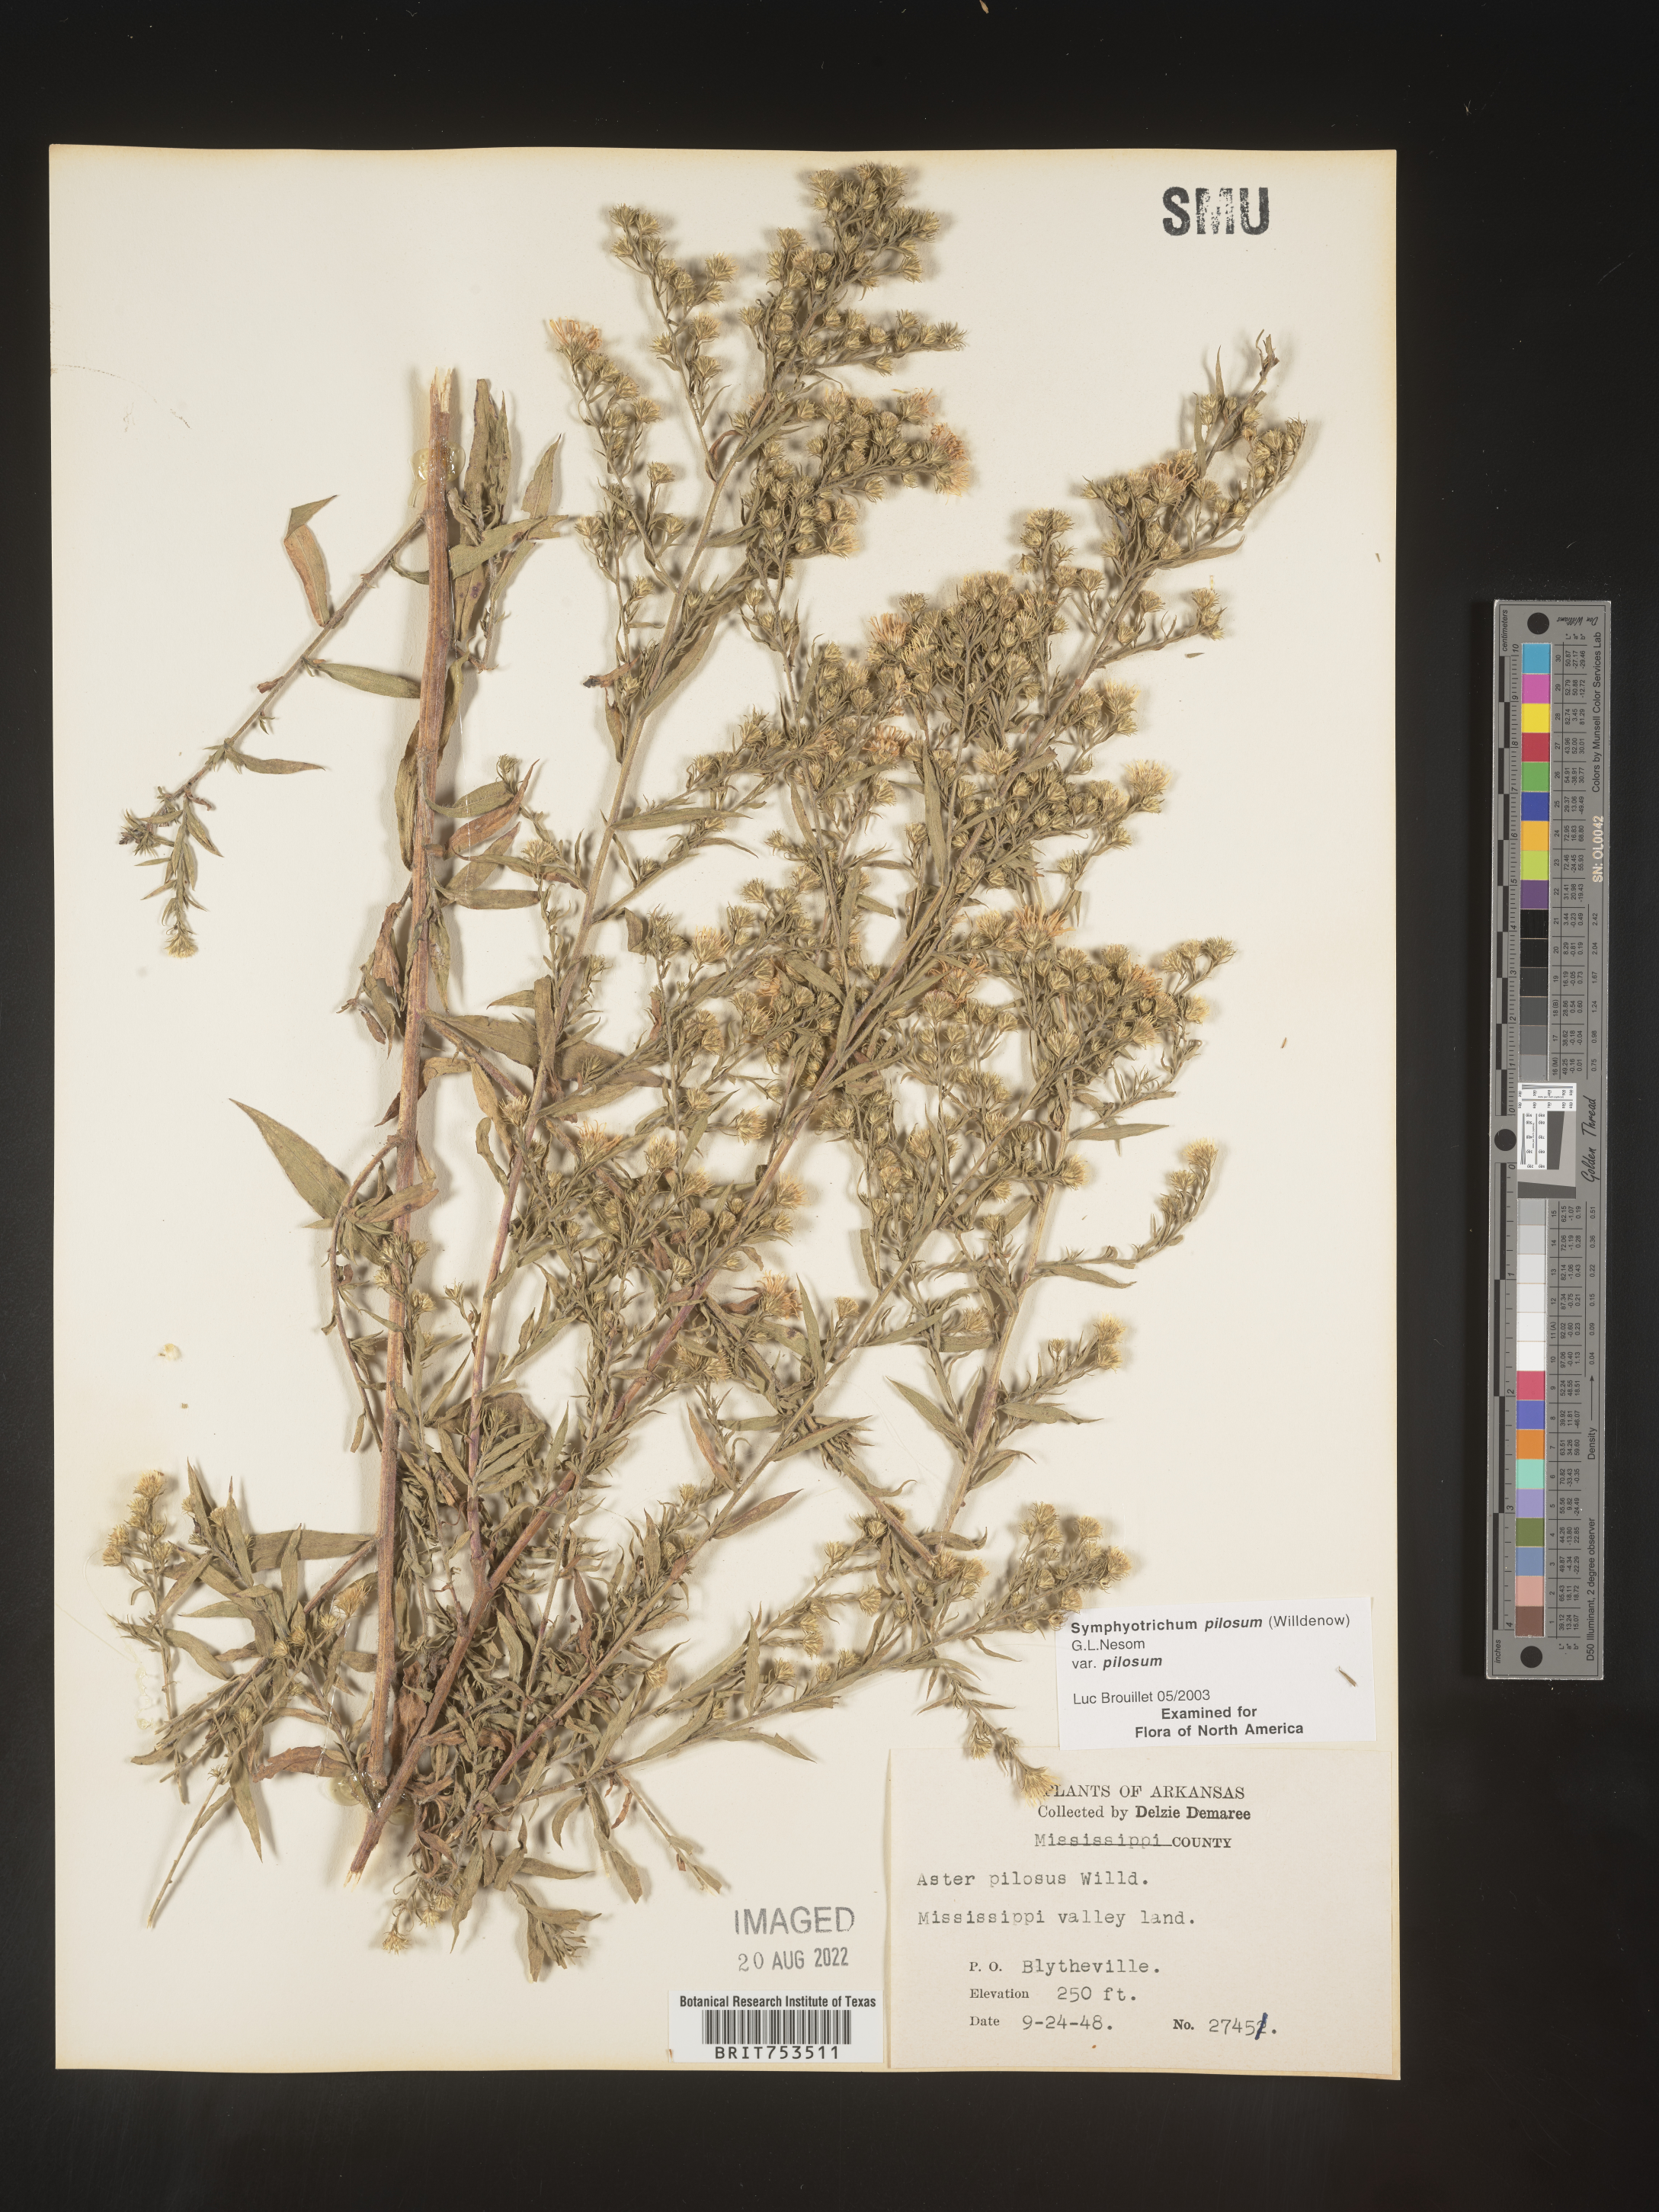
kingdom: Plantae
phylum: Tracheophyta
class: Magnoliopsida
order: Asterales
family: Asteraceae
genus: Symphyotrichum
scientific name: Symphyotrichum pilosum
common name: Awl aster
